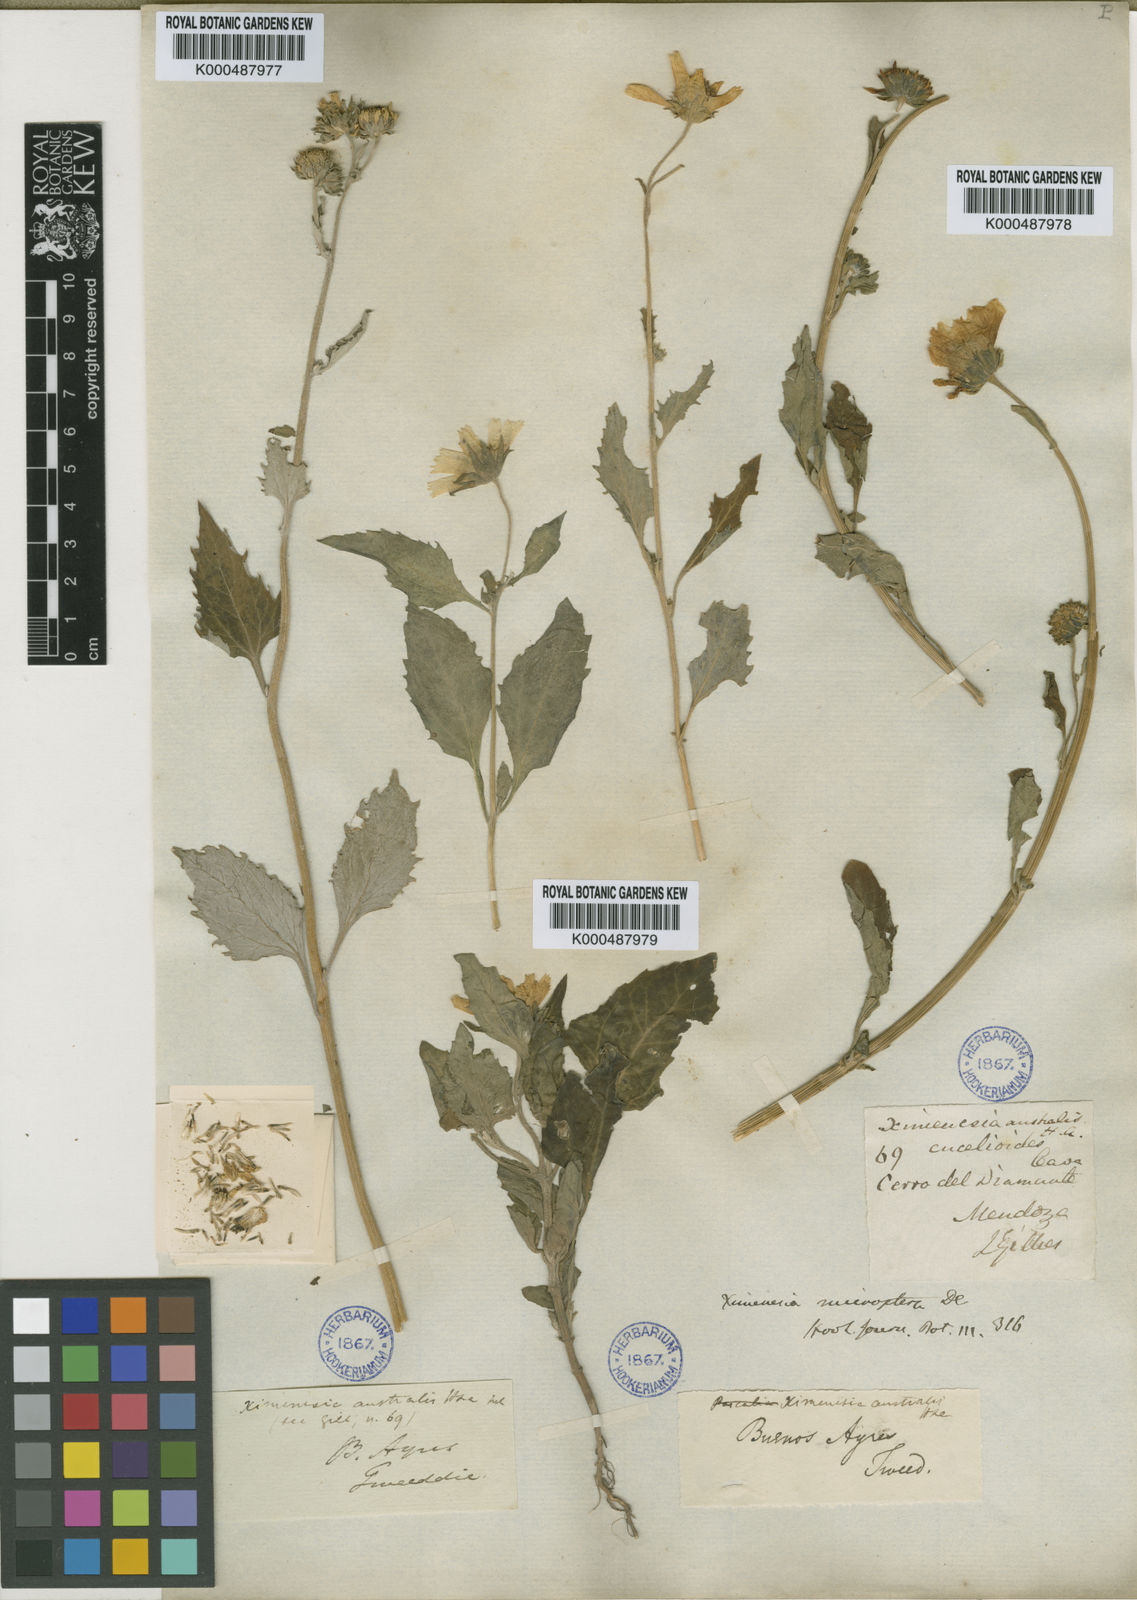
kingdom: Plantae
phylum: Tracheophyta
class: Magnoliopsida
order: Asterales
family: Asteraceae
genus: Verbesina
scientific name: Verbesina encelioides
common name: Golden crownbeard
